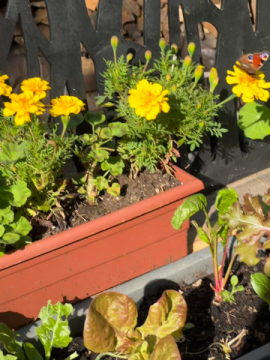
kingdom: Animalia
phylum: Arthropoda
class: Insecta
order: Lepidoptera
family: Nymphalidae
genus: Aglais
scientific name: Aglais io
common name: European Peacock
